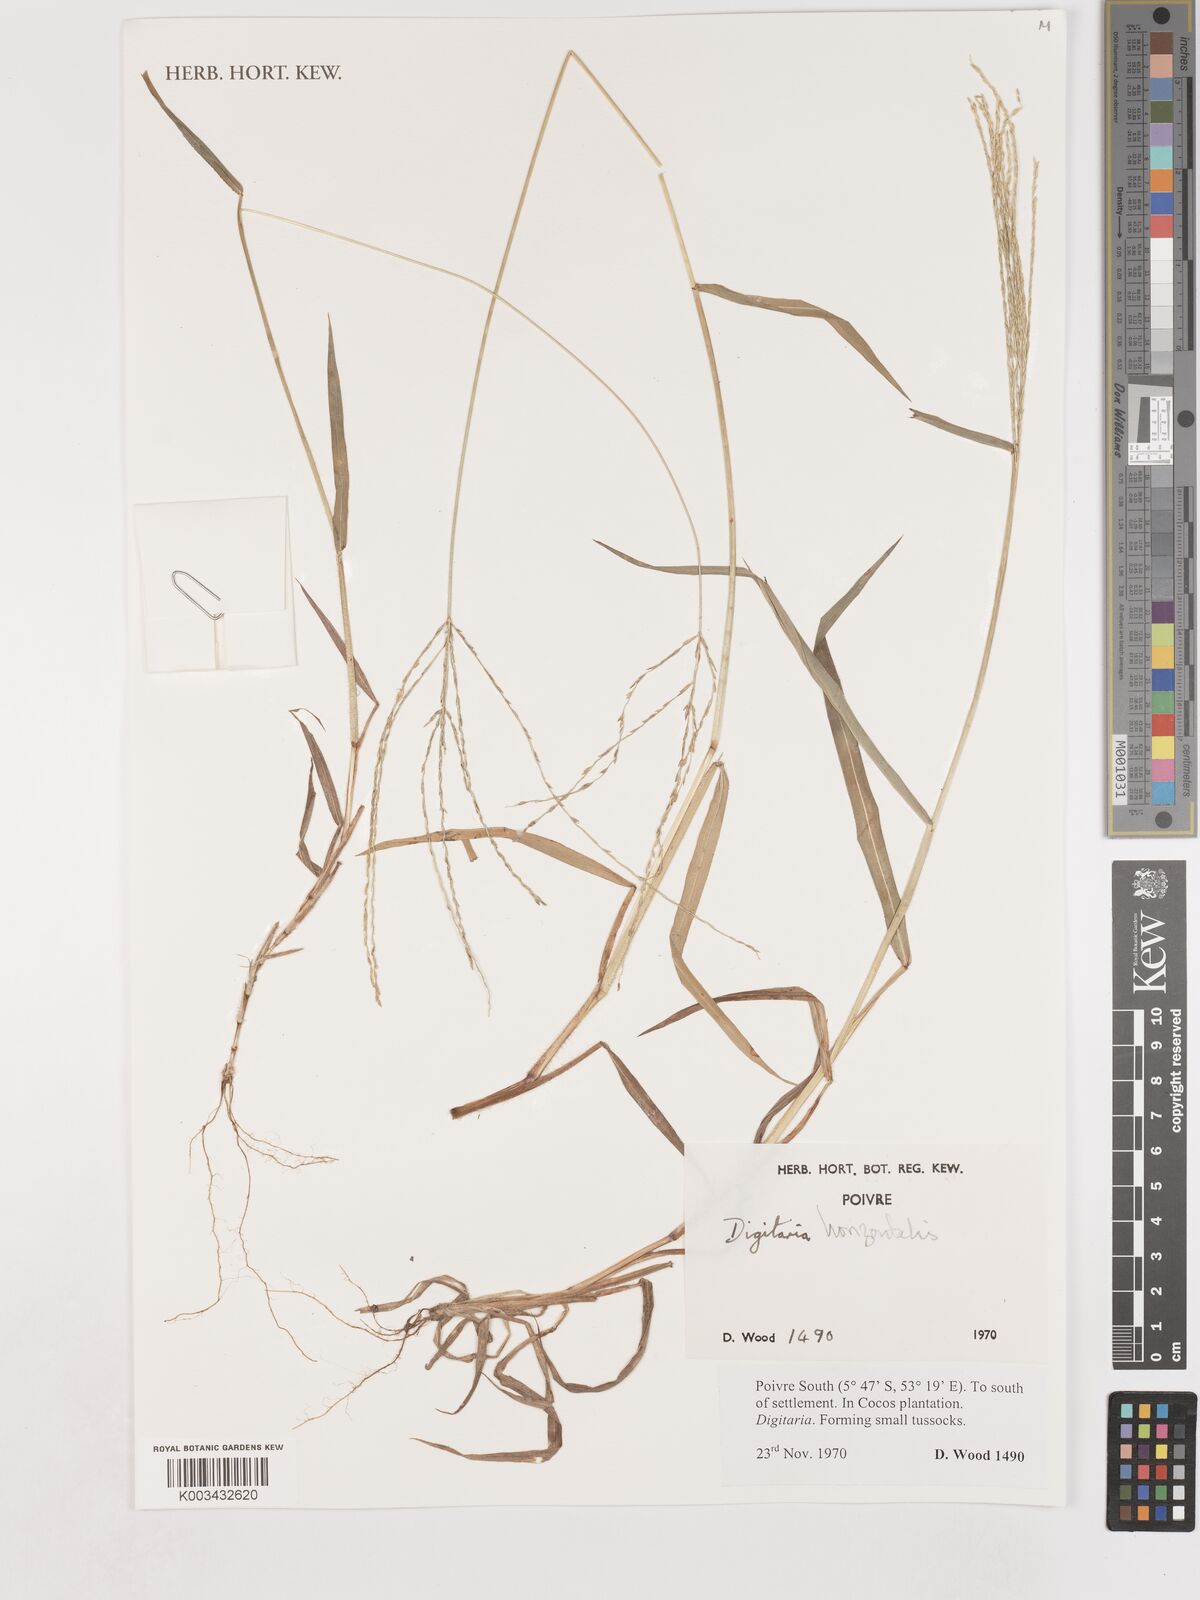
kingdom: Plantae
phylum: Tracheophyta
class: Liliopsida
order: Poales
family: Poaceae
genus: Digitaria
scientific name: Digitaria horizontalis
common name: Jamaican crabgrass
